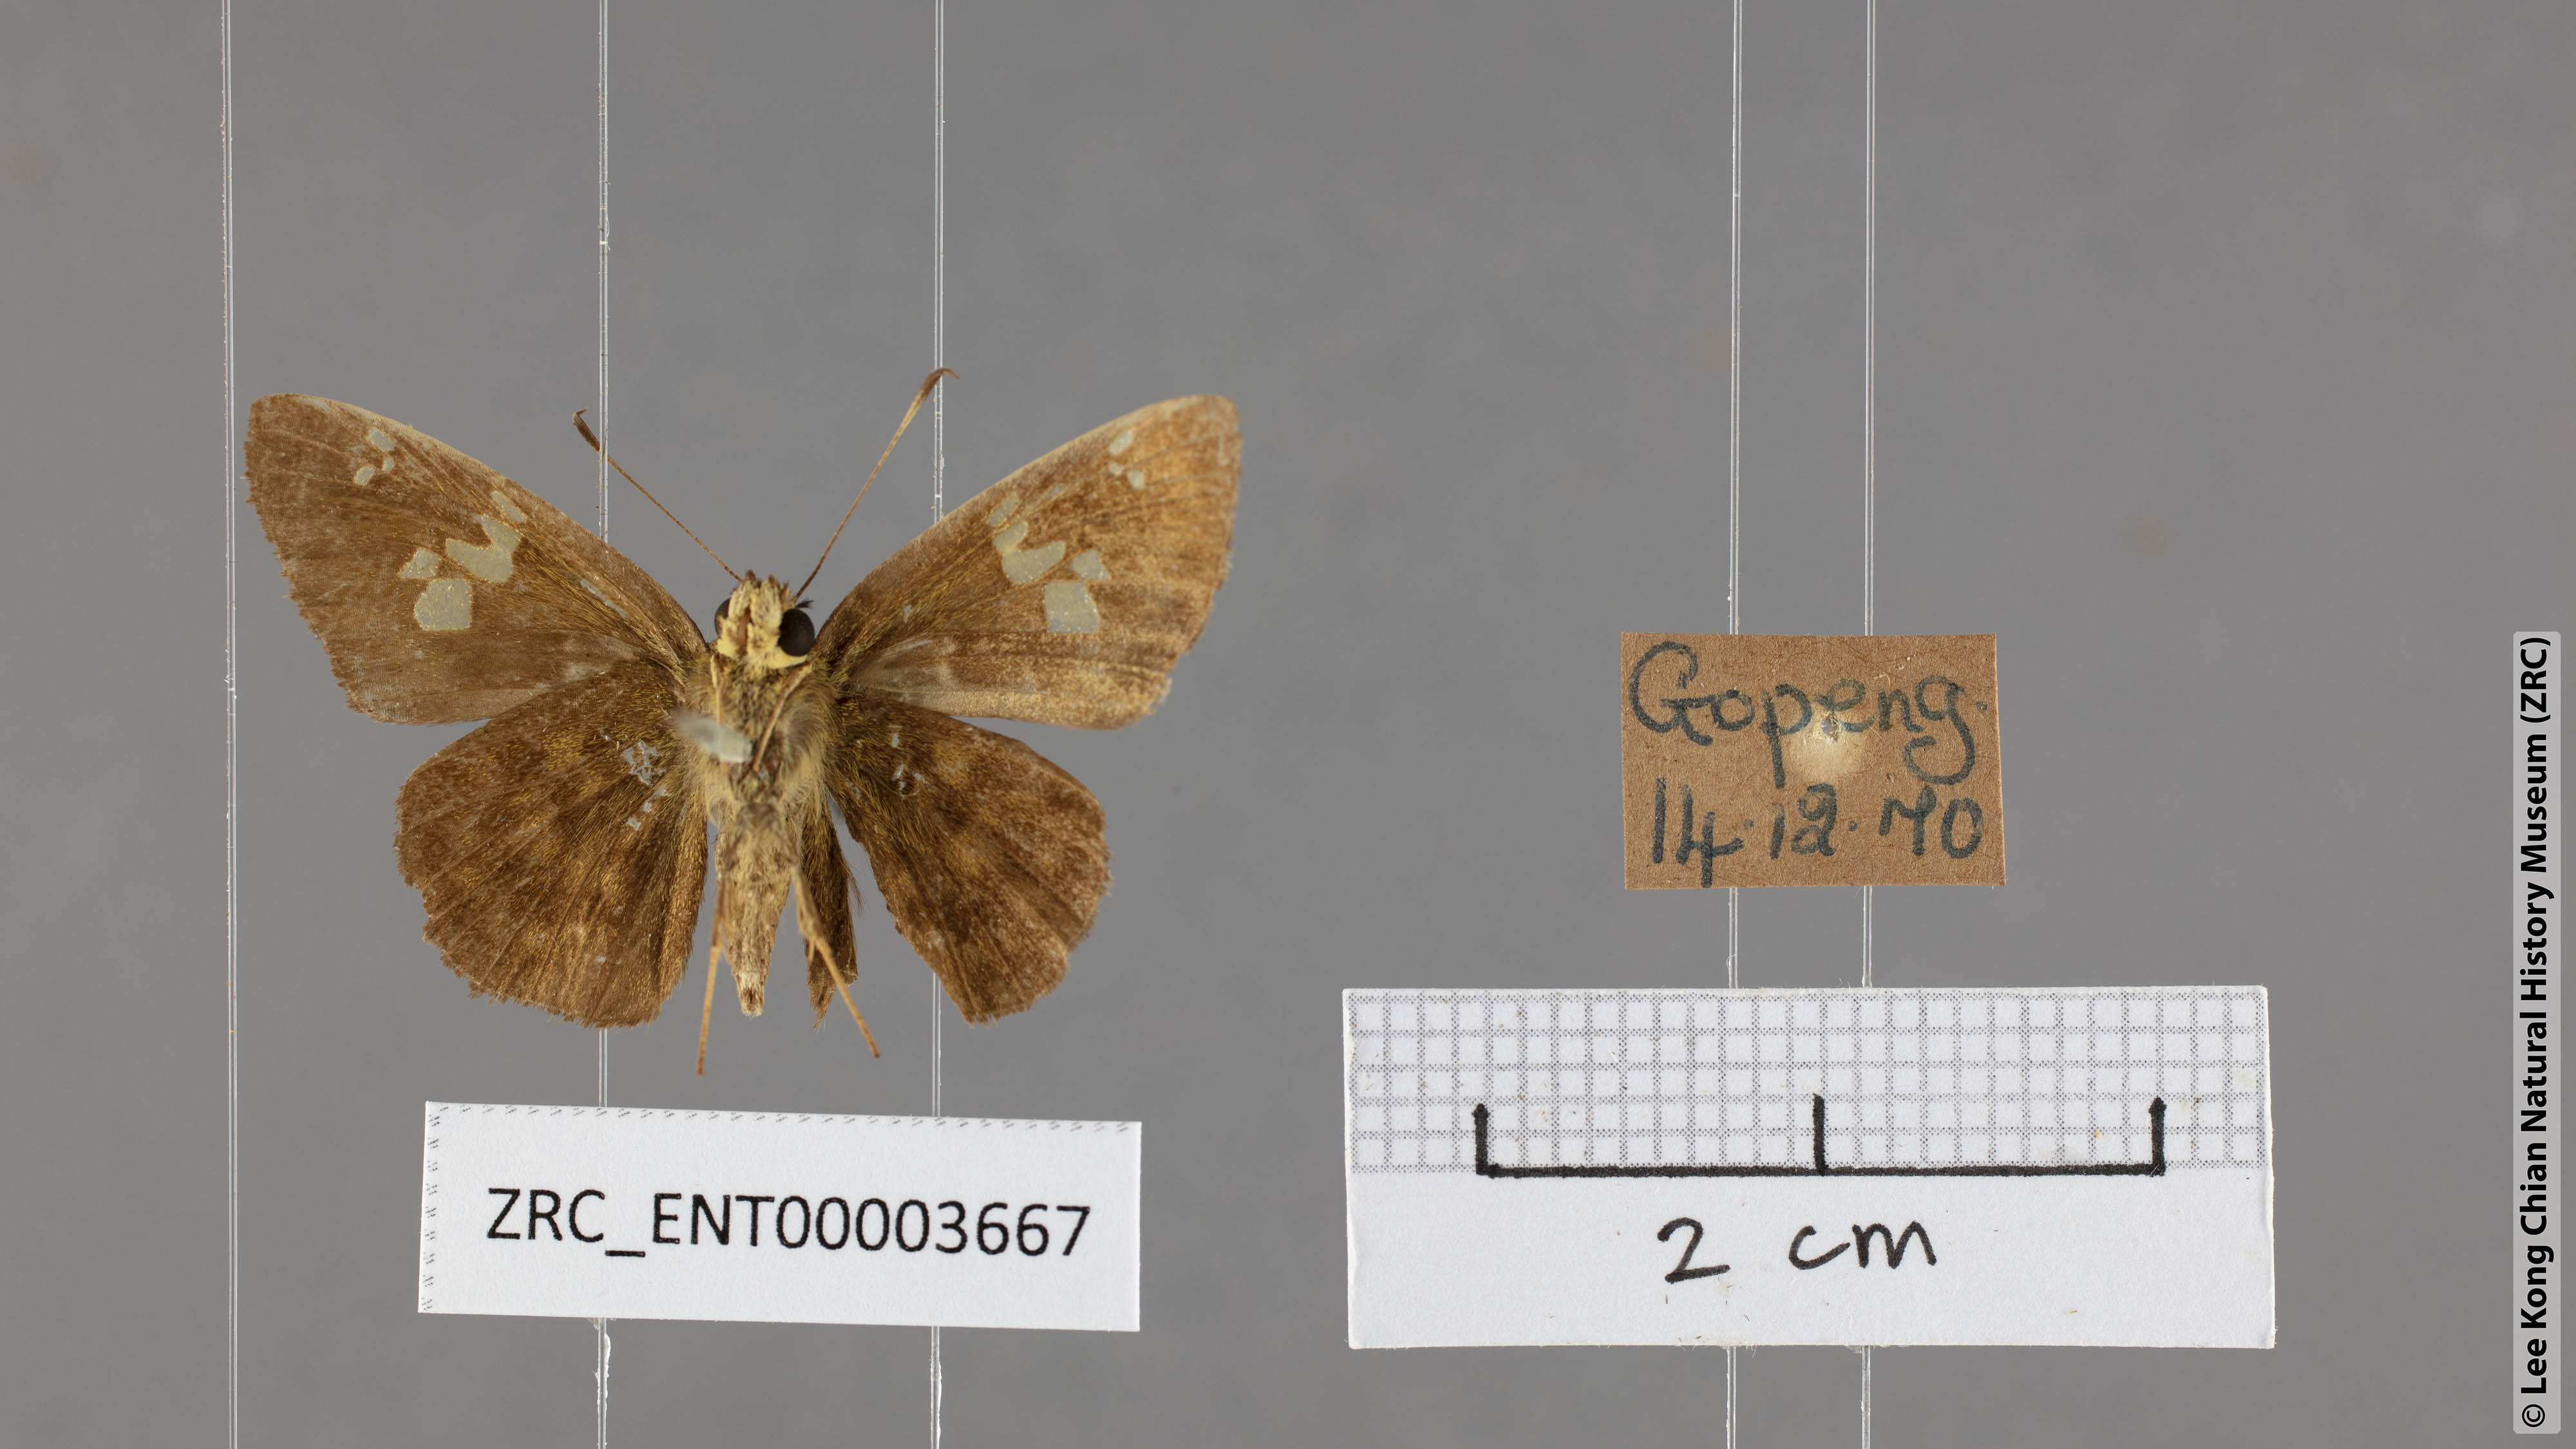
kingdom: Animalia
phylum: Arthropoda
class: Insecta
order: Lepidoptera
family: Hesperiidae
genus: Pseudocoladenia
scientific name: Pseudocoladenia dan
